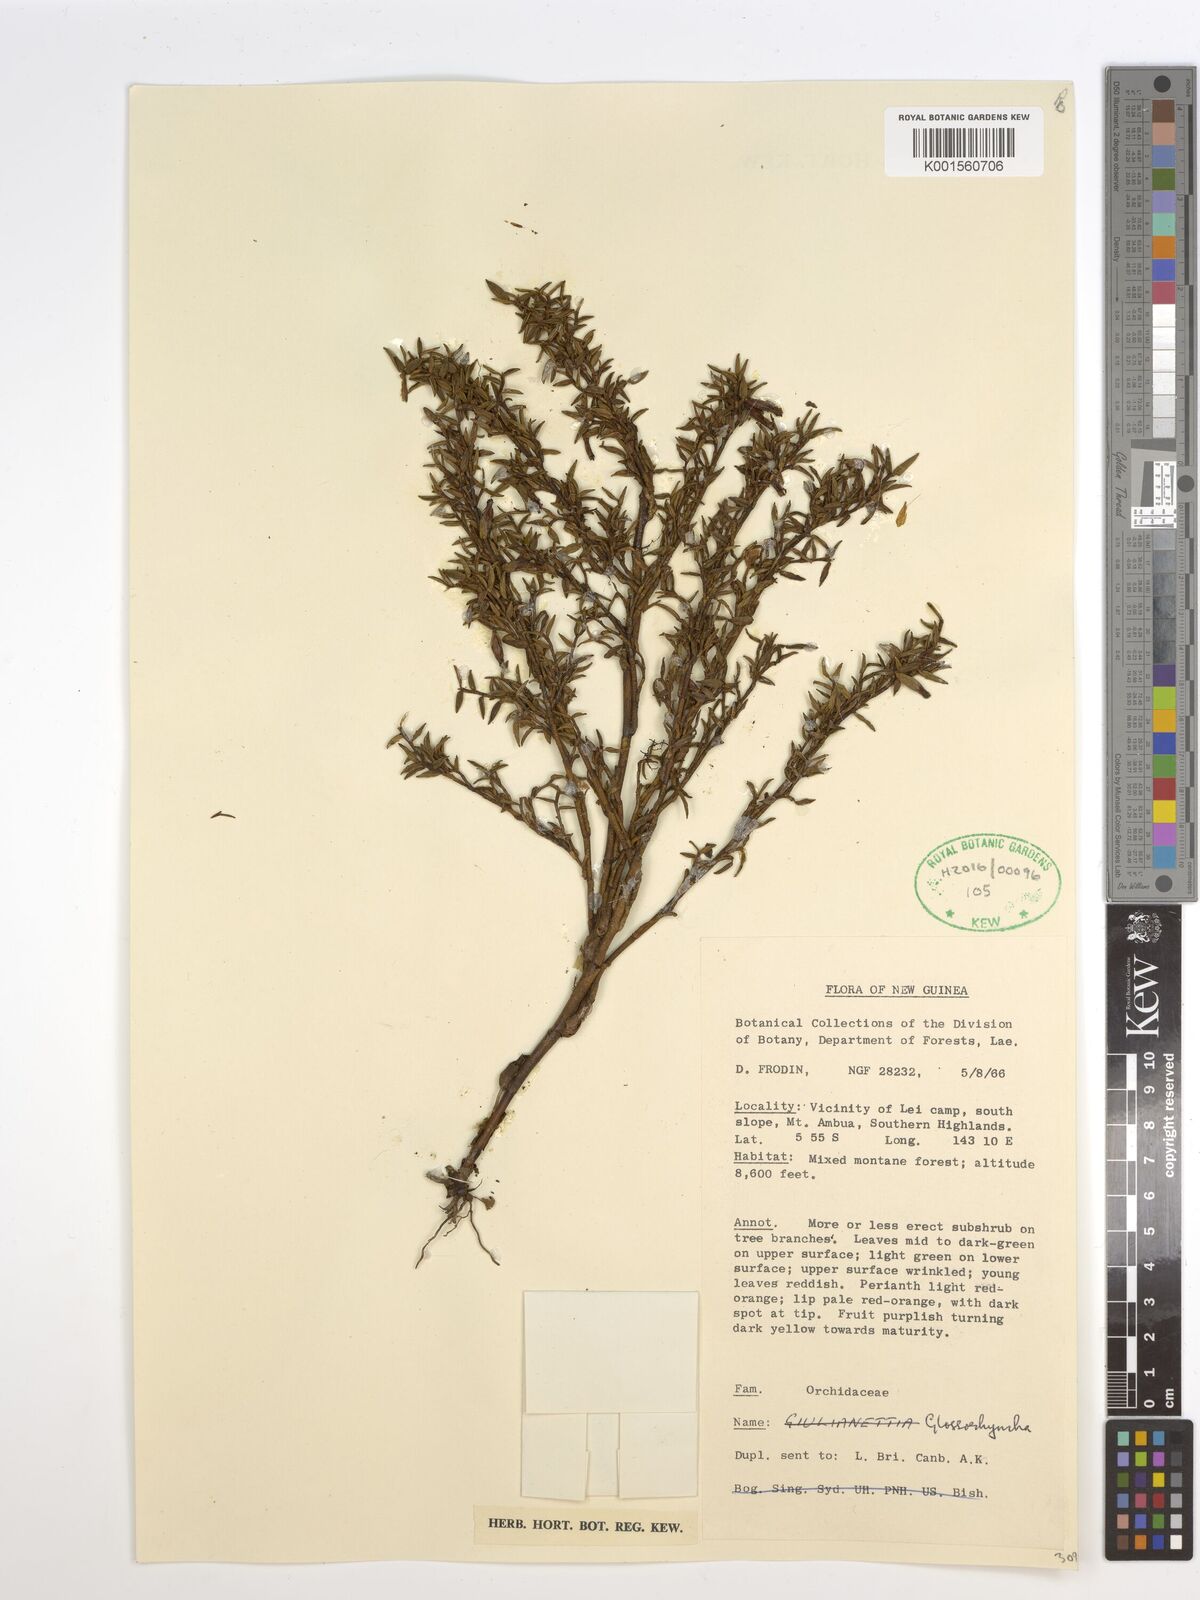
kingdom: Plantae
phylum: Tracheophyta
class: Liliopsida
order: Asparagales
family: Orchidaceae
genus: Glomera
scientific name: Glomera
